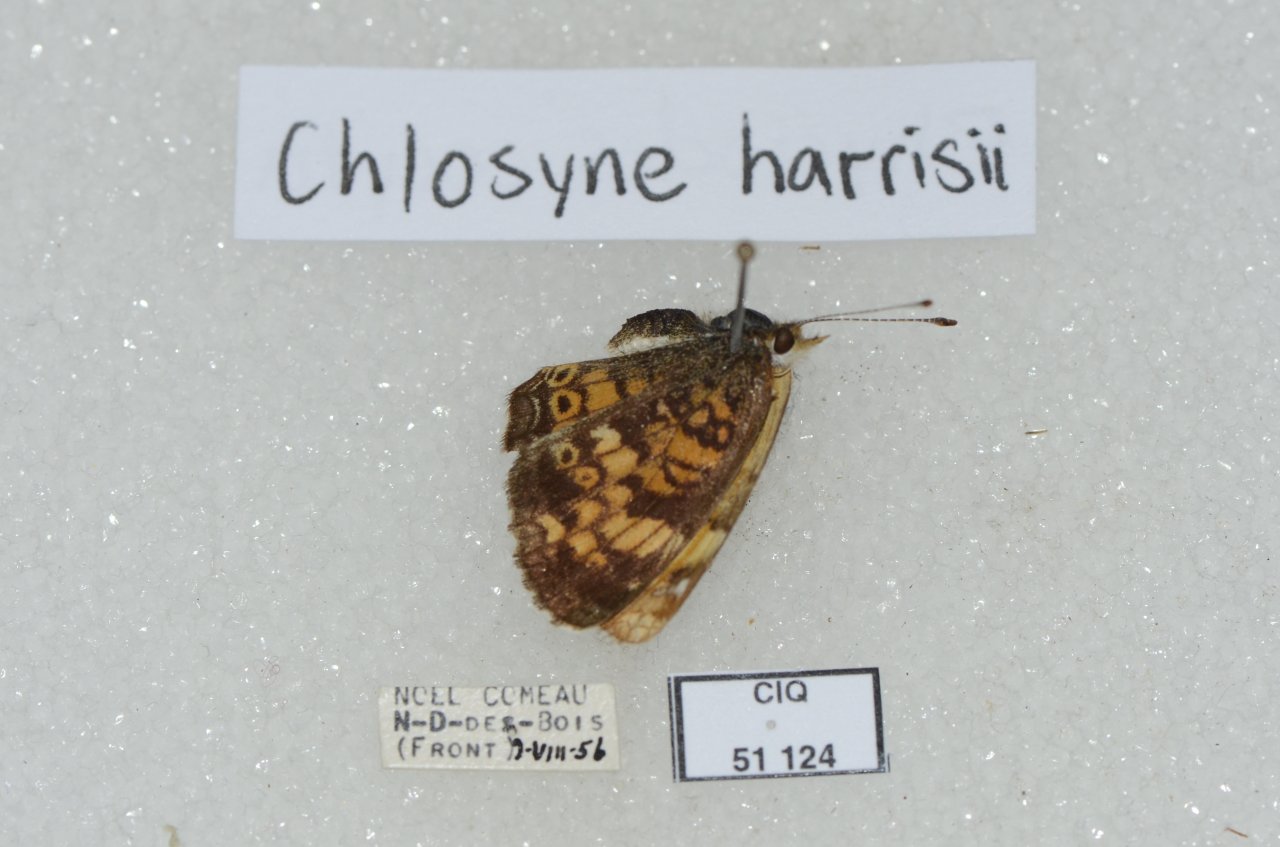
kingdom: Animalia
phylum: Arthropoda
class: Insecta
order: Lepidoptera
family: Nymphalidae
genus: Chlosyne
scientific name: Chlosyne harrisii
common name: Harris's Checkerspot
